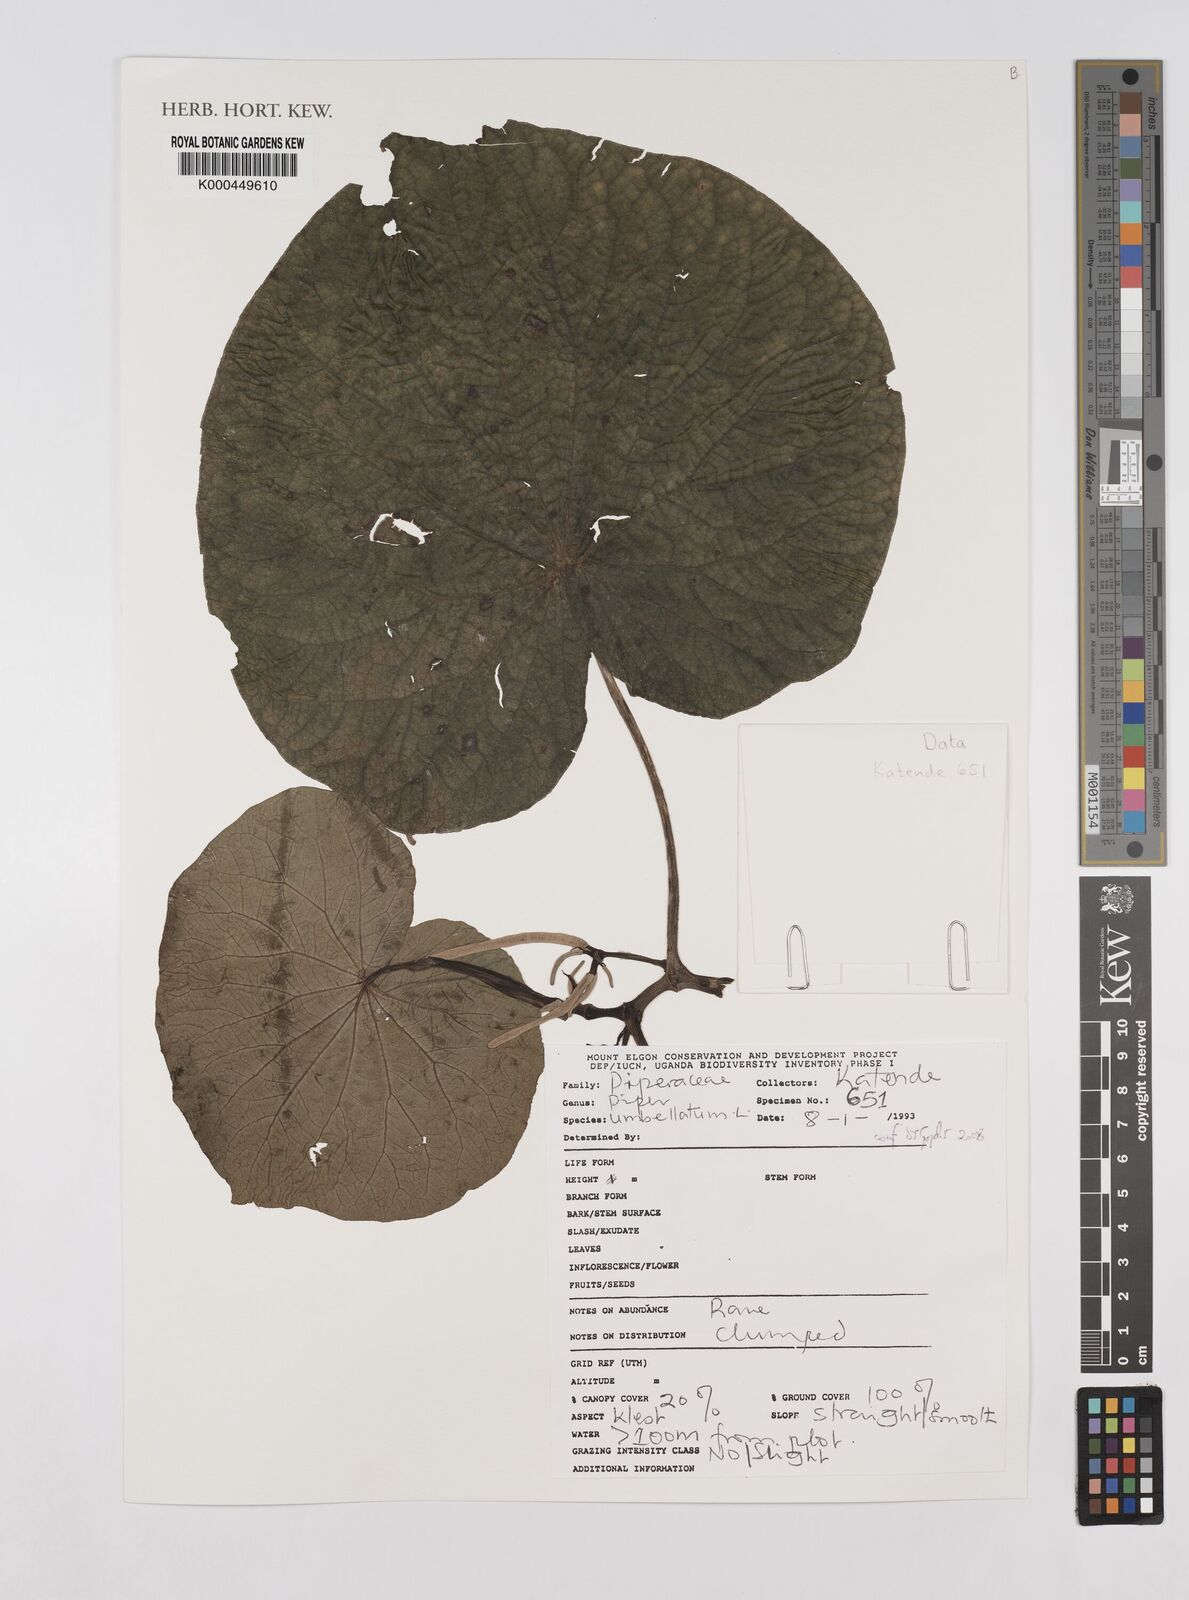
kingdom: Plantae
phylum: Tracheophyta
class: Magnoliopsida
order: Piperales
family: Piperaceae
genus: Piper
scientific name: Piper umbellatum
